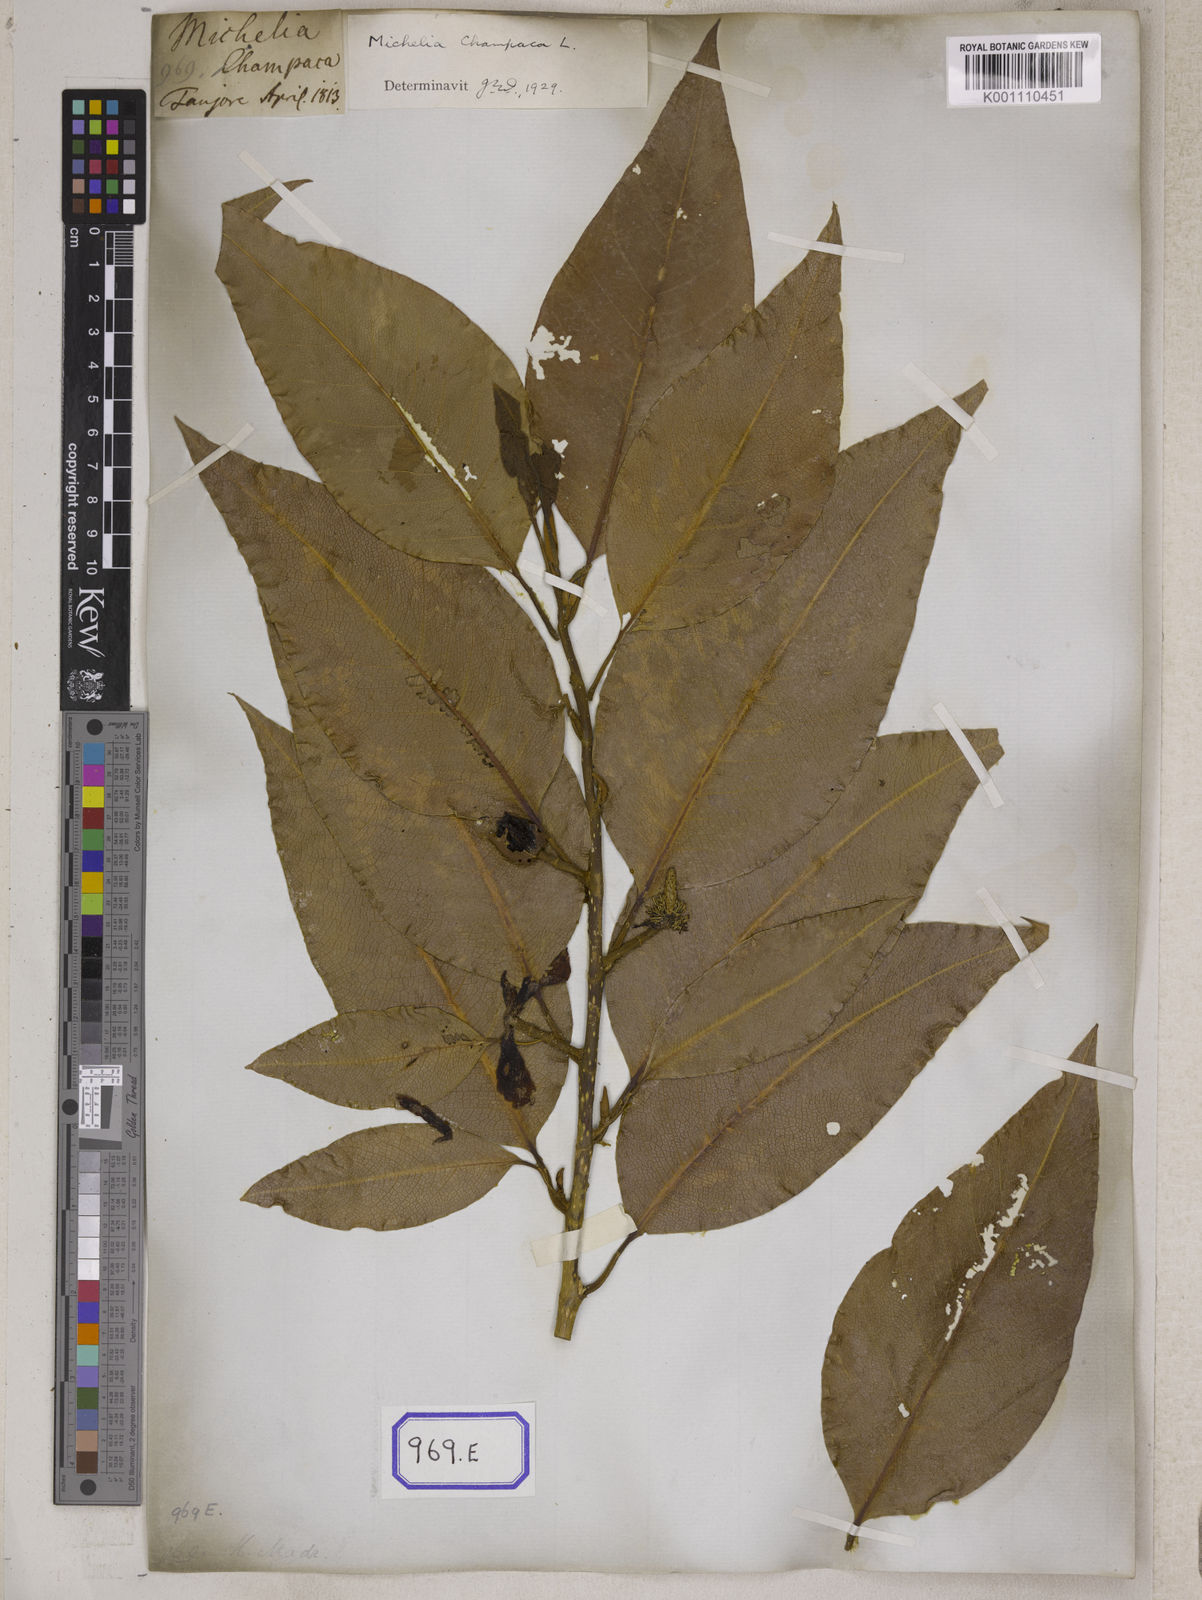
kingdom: Plantae
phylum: Tracheophyta
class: Magnoliopsida
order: Magnoliales
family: Magnoliaceae
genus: Magnolia
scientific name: Magnolia champaca
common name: Champak
